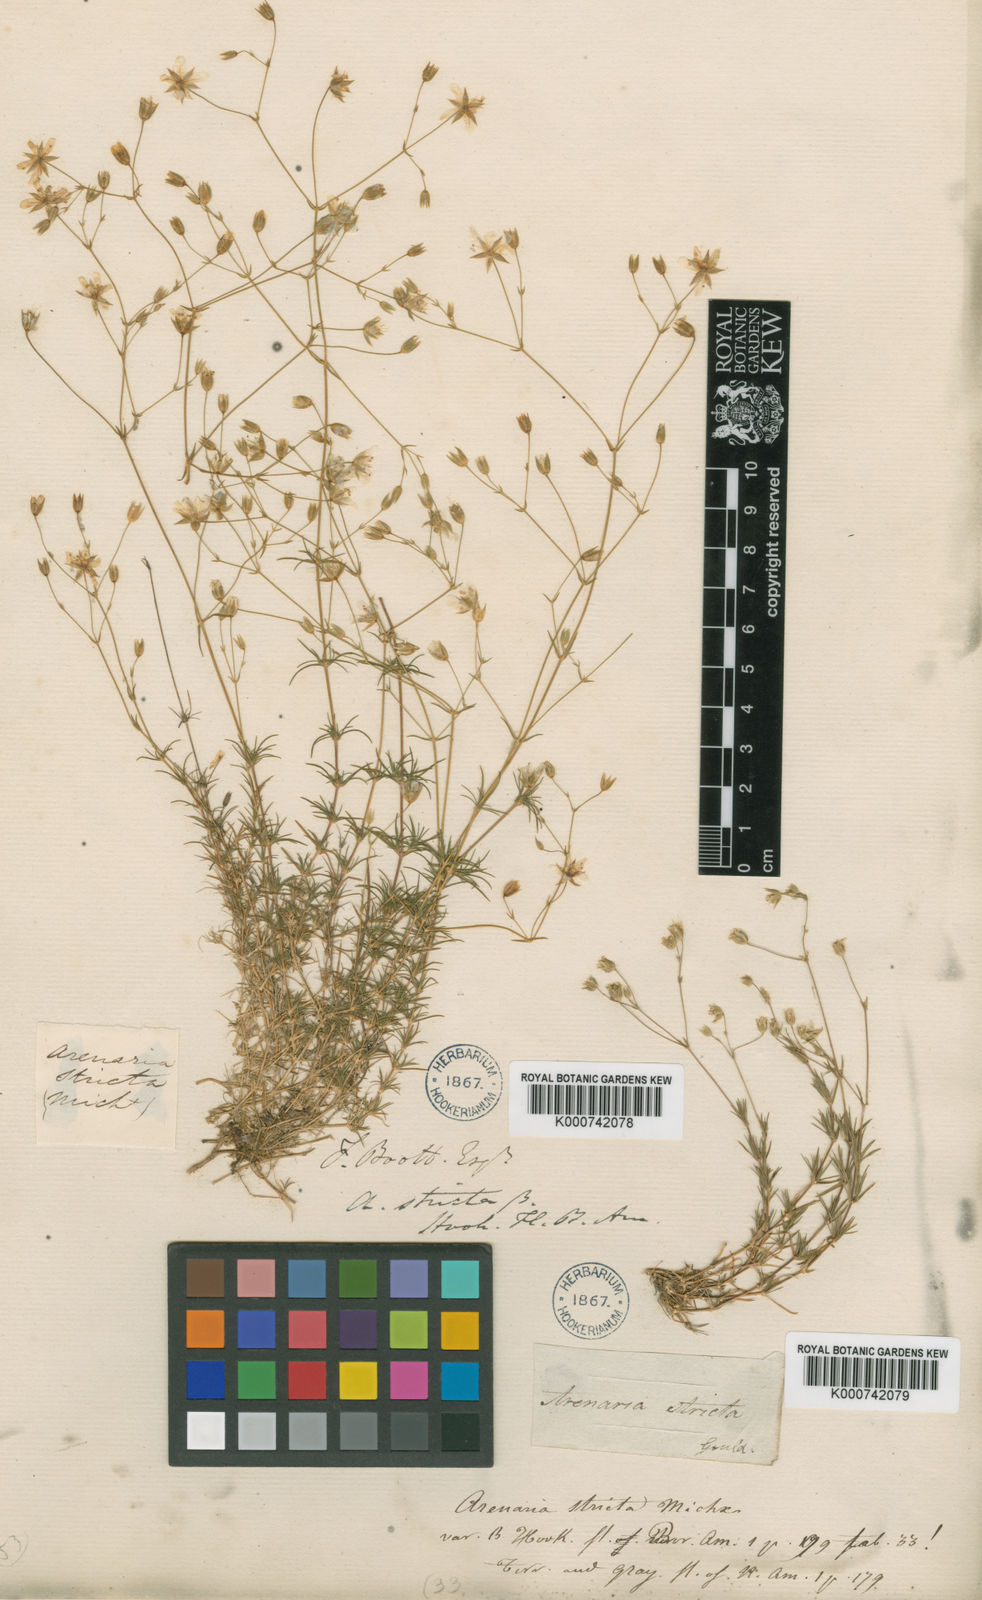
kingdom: Plantae
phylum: Tracheophyta
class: Magnoliopsida
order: Caryophyllales
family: Caryophyllaceae
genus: Mononeuria
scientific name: Mononeuria patula
